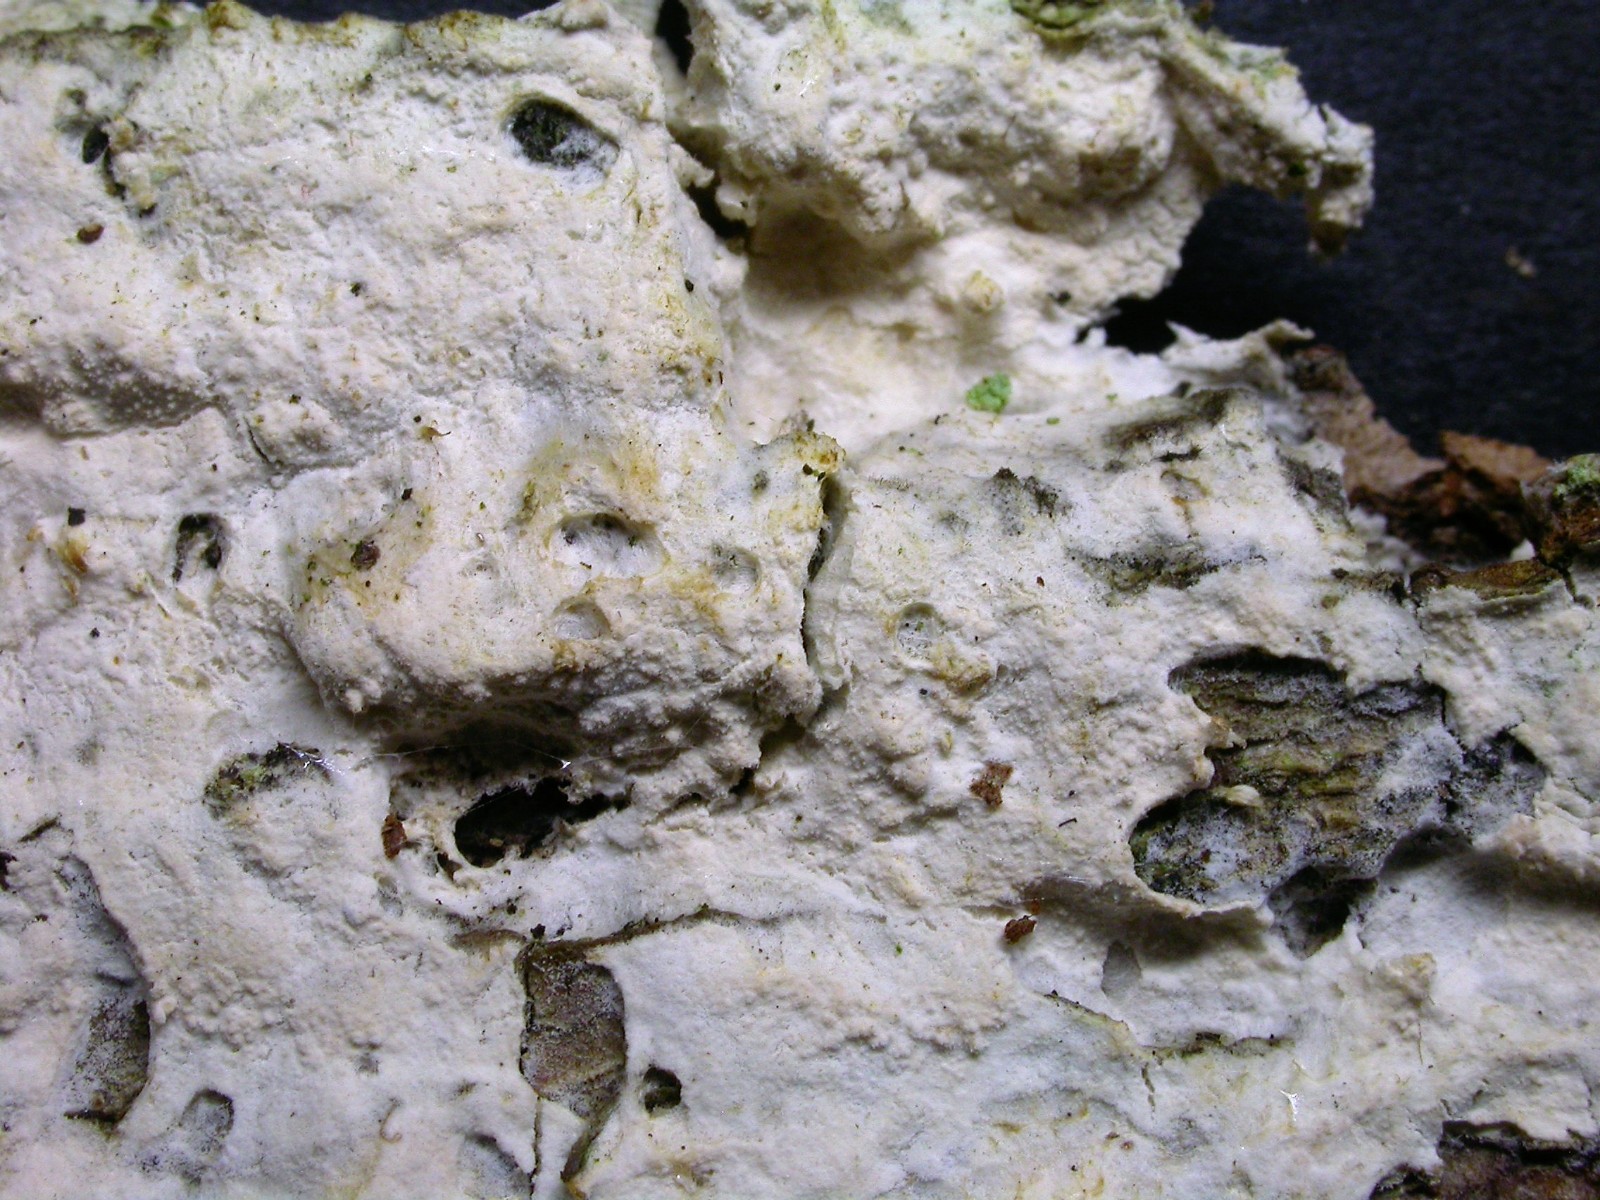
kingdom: Fungi
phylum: Basidiomycota
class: Agaricomycetes
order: Polyporales
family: Hyphodermataceae
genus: Hyphoderma
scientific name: Hyphoderma setigerum
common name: håret kalkskind
